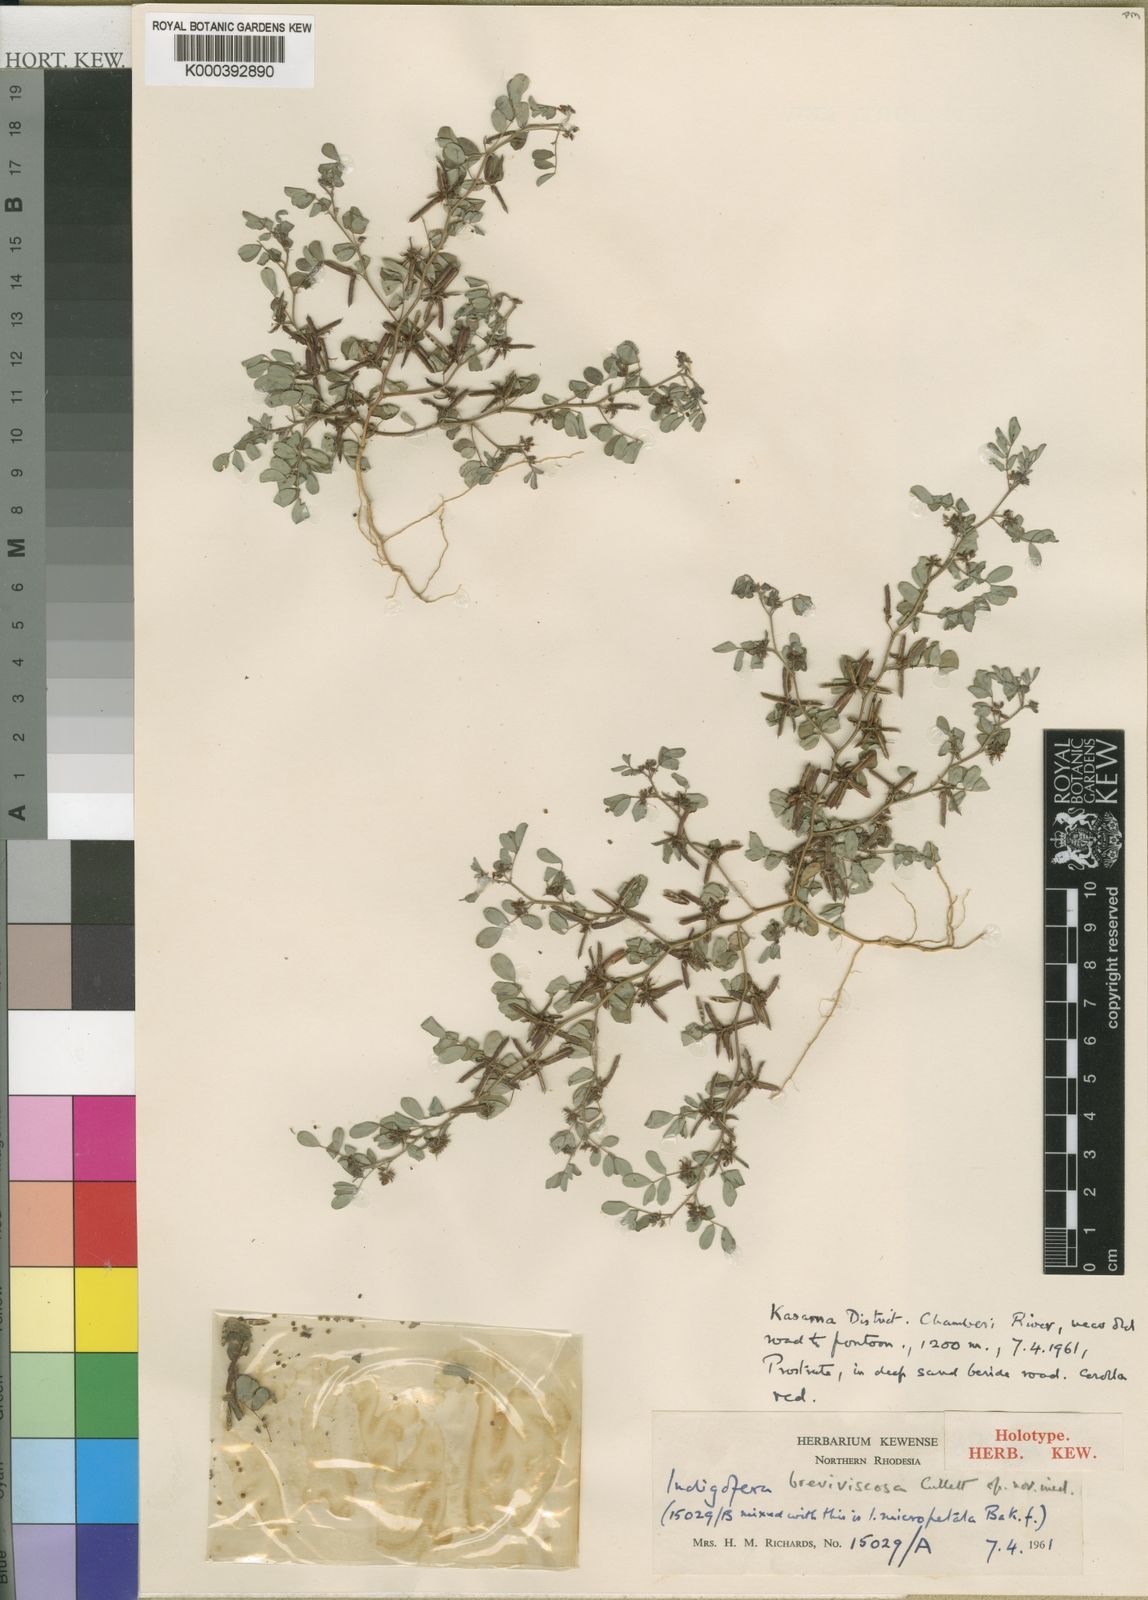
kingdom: Plantae
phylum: Tracheophyta
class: Magnoliopsida
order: Fabales
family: Fabaceae
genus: Indigofera
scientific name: Indigofera breviviscosa
